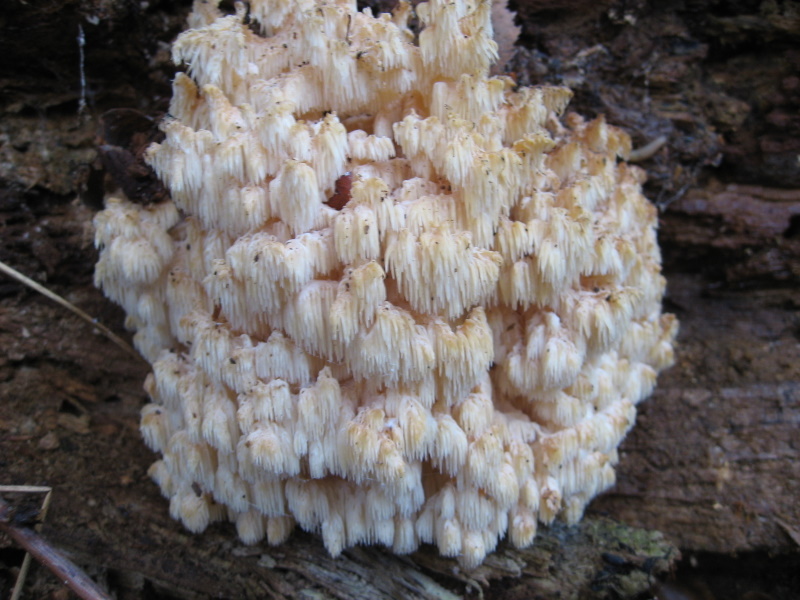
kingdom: Fungi
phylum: Basidiomycota
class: Agaricomycetes
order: Russulales
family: Hericiaceae
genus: Hericium
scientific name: Hericium coralloides
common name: koralpigsvamp
